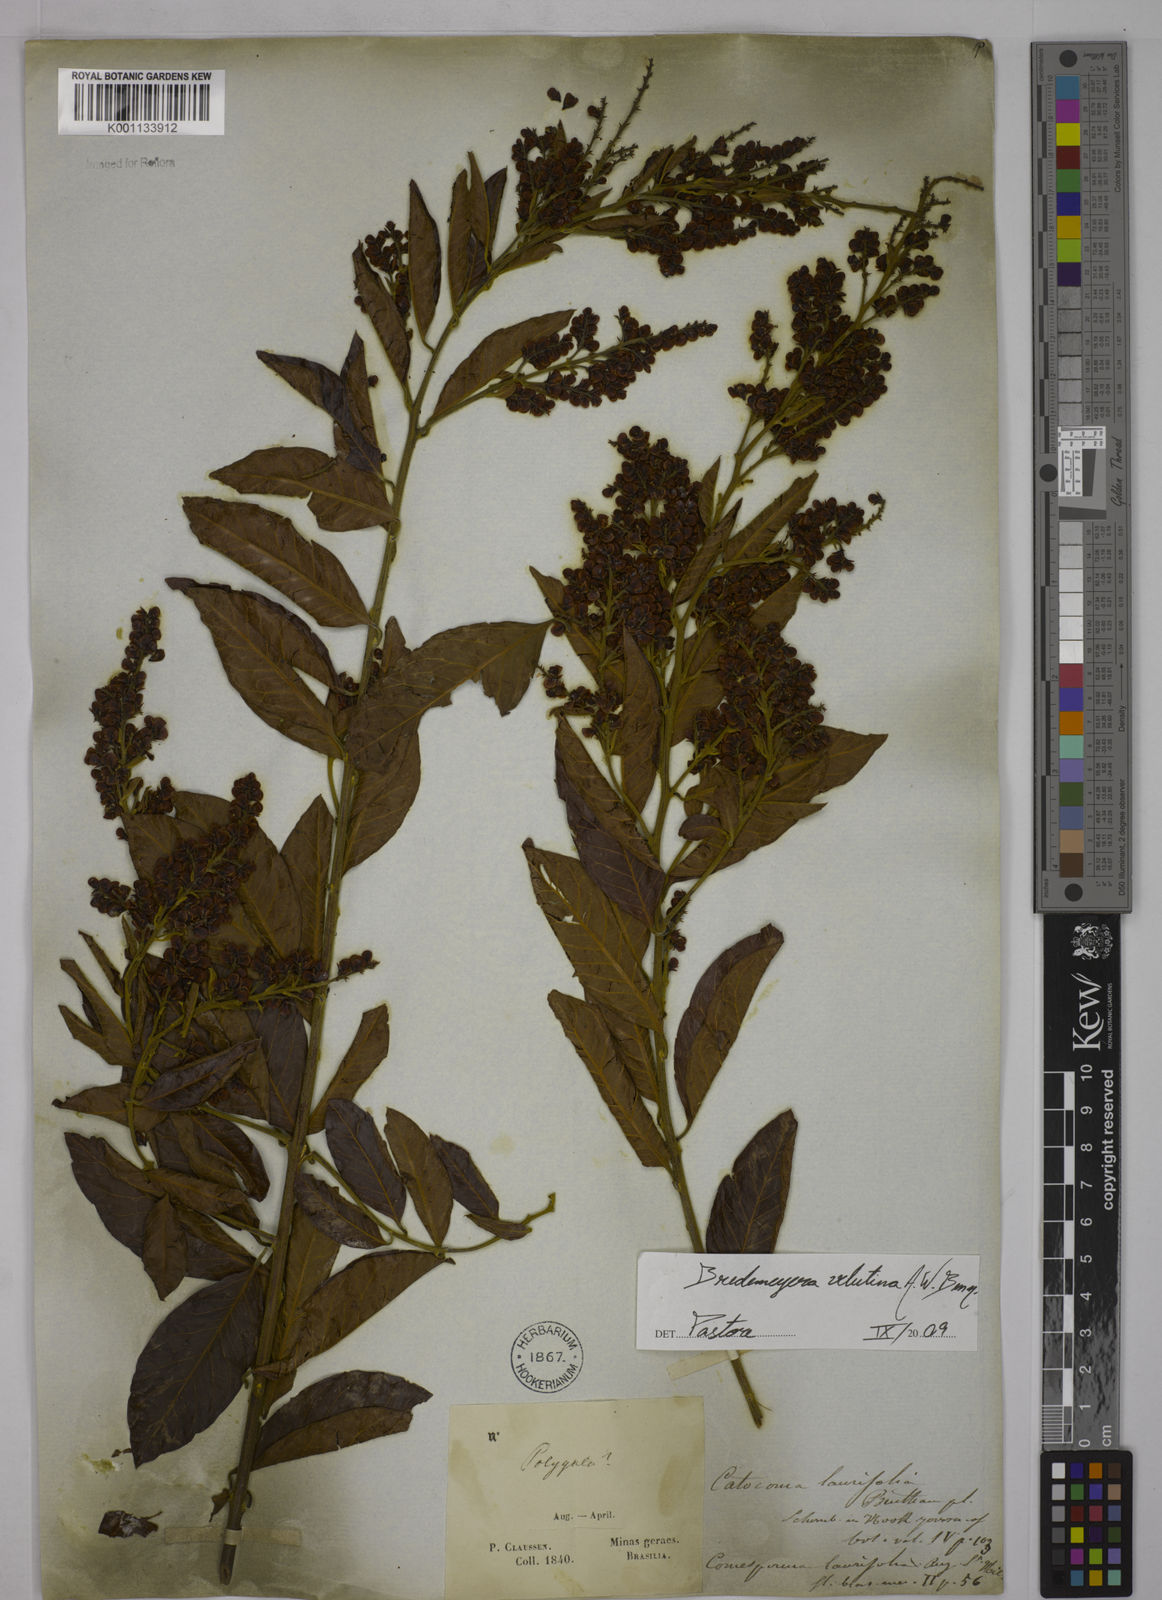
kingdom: Plantae
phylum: Tracheophyta
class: Magnoliopsida
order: Fabales
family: Polygalaceae
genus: Bredemeyera
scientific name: Bredemeyera hebeclada
